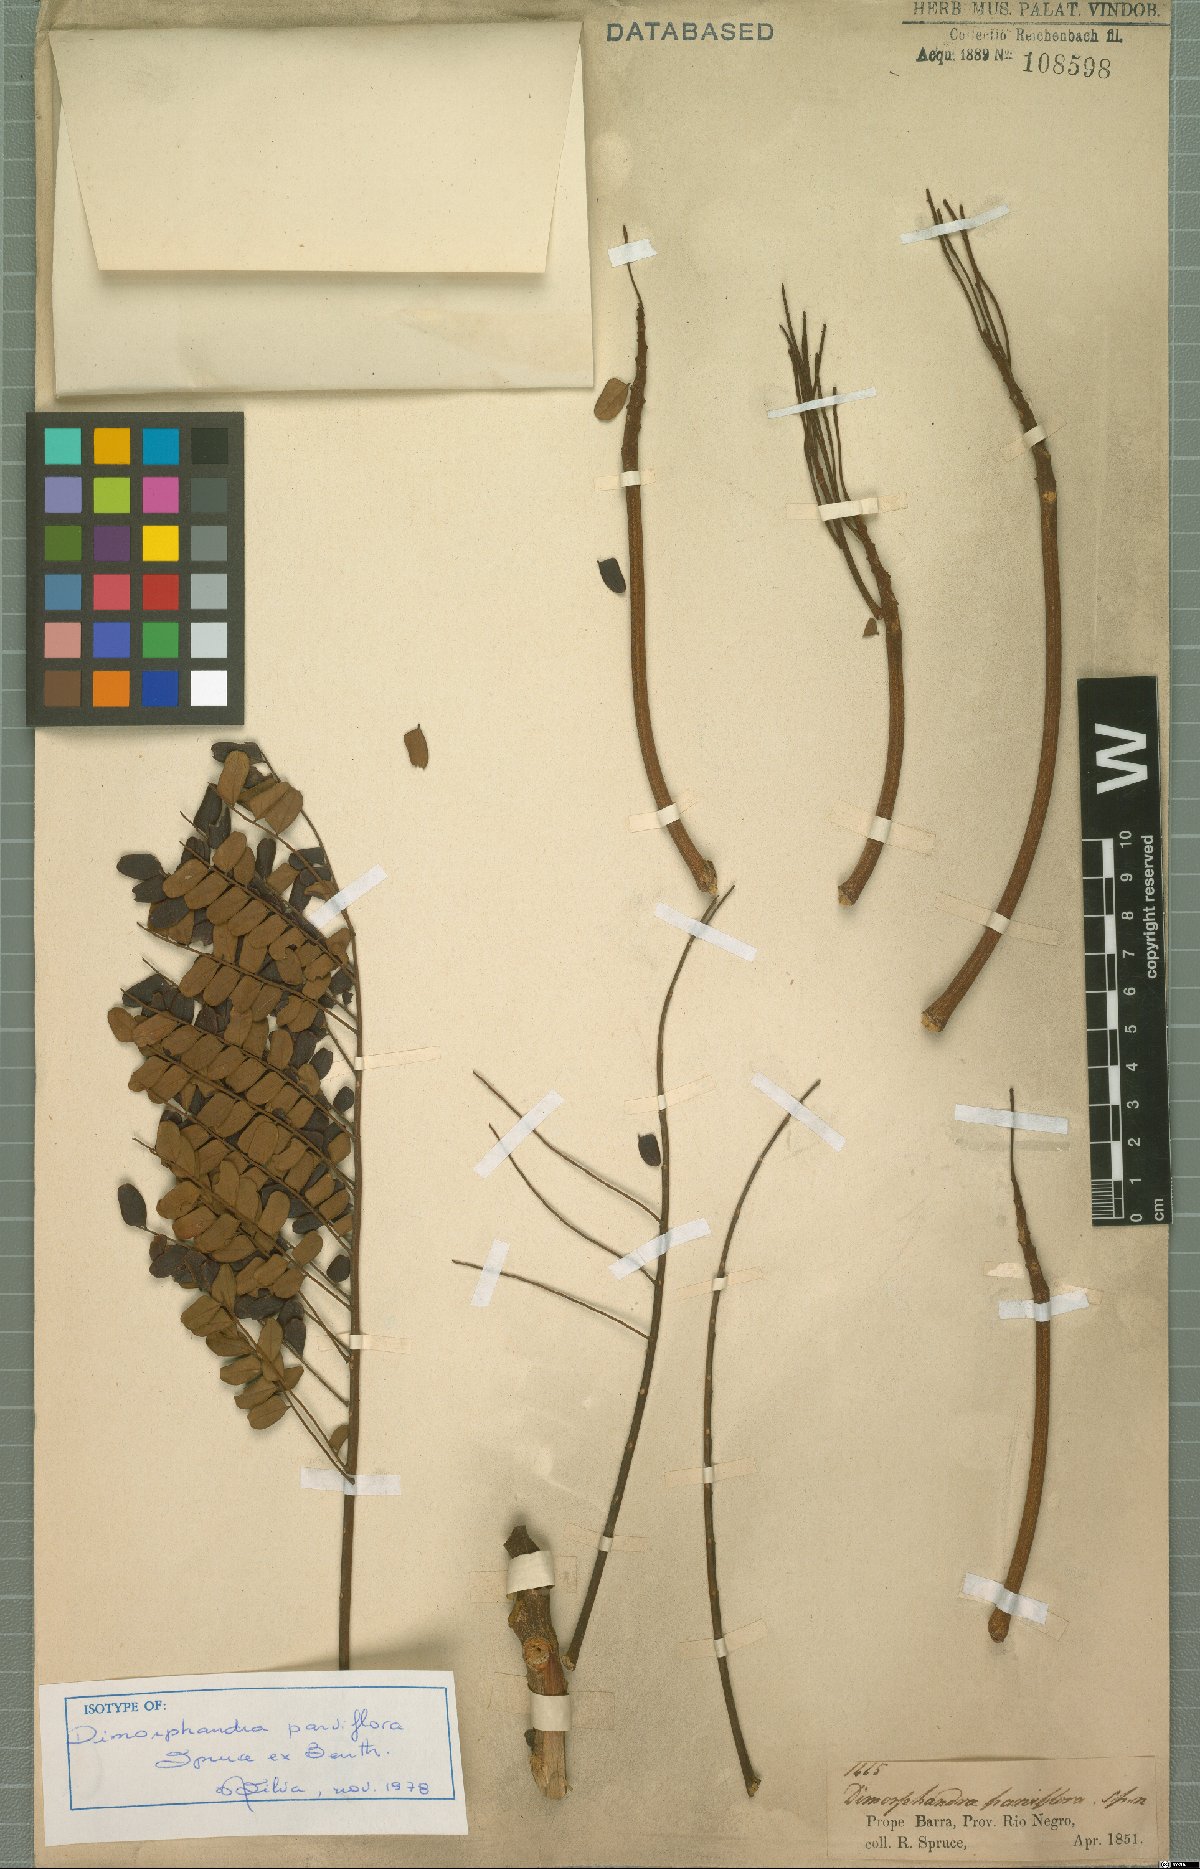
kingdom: Plantae
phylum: Tracheophyta
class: Magnoliopsida
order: Fabales
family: Fabaceae
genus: Dimorphandra
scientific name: Dimorphandra parviflora
